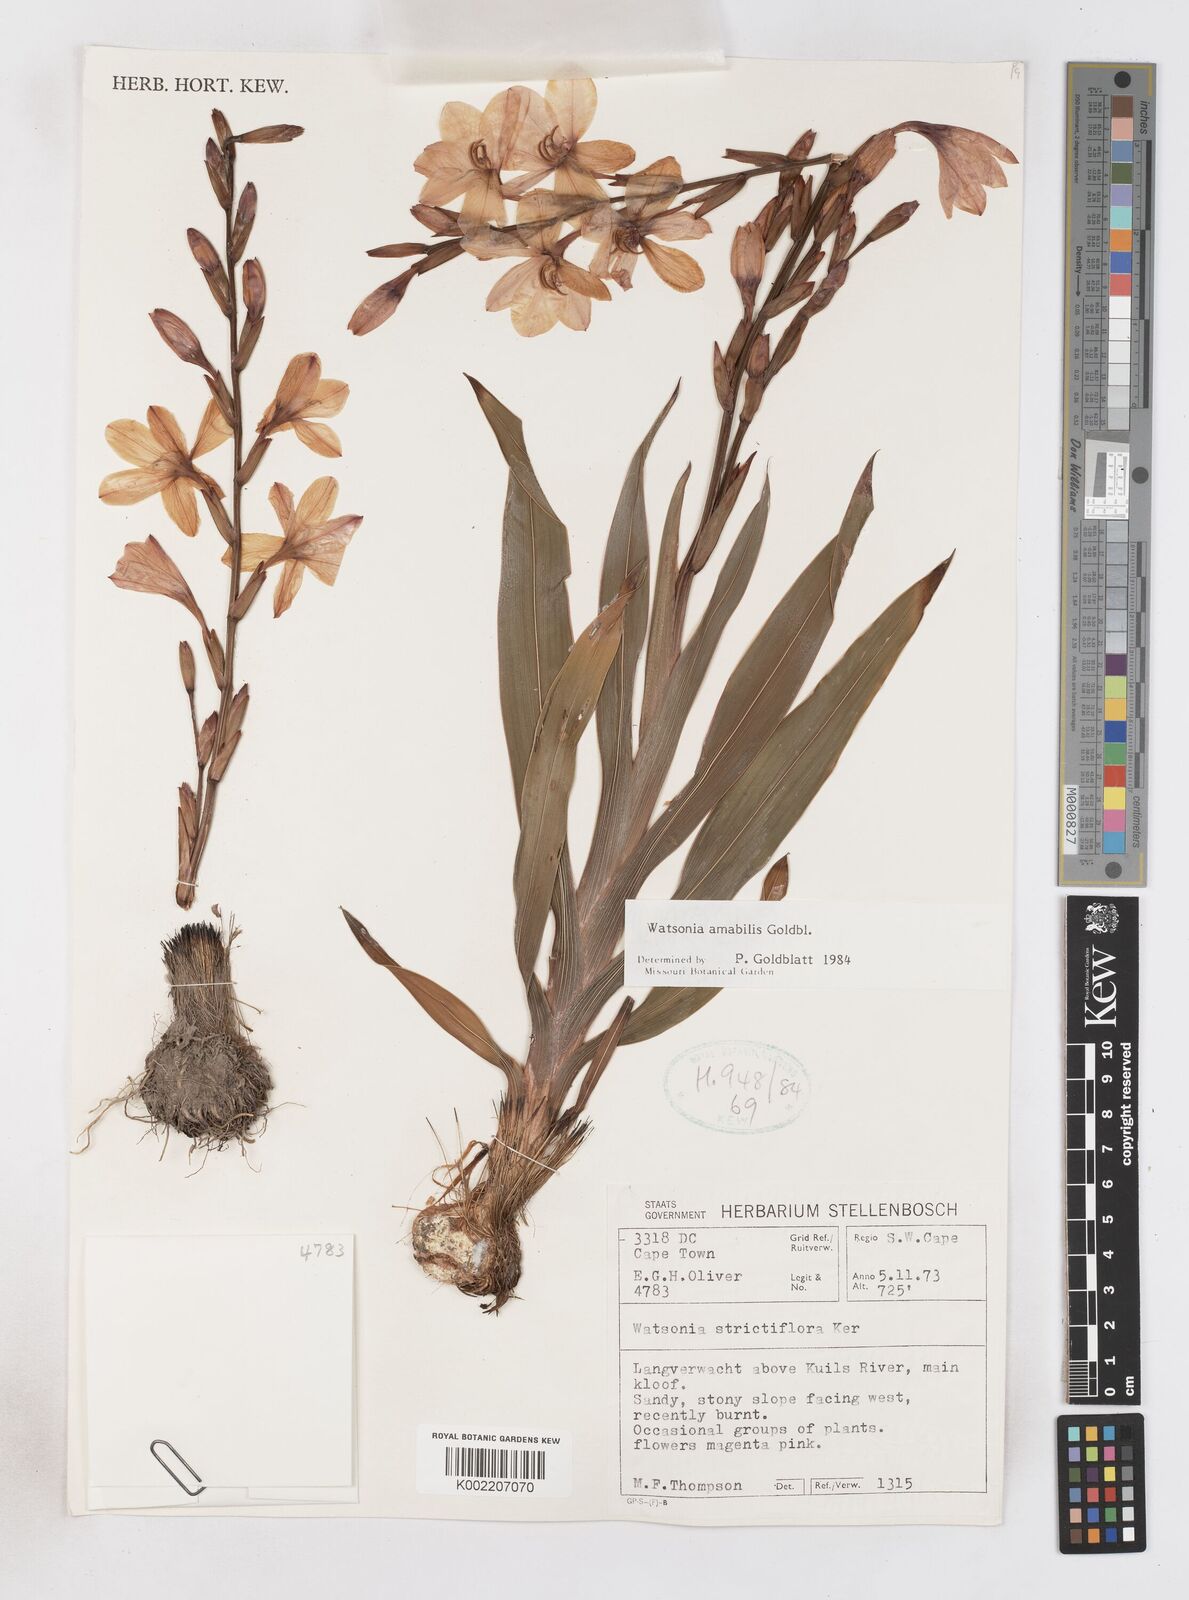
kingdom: Plantae
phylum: Tracheophyta
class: Liliopsida
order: Asparagales
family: Iridaceae
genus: Watsonia
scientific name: Watsonia amabilis
